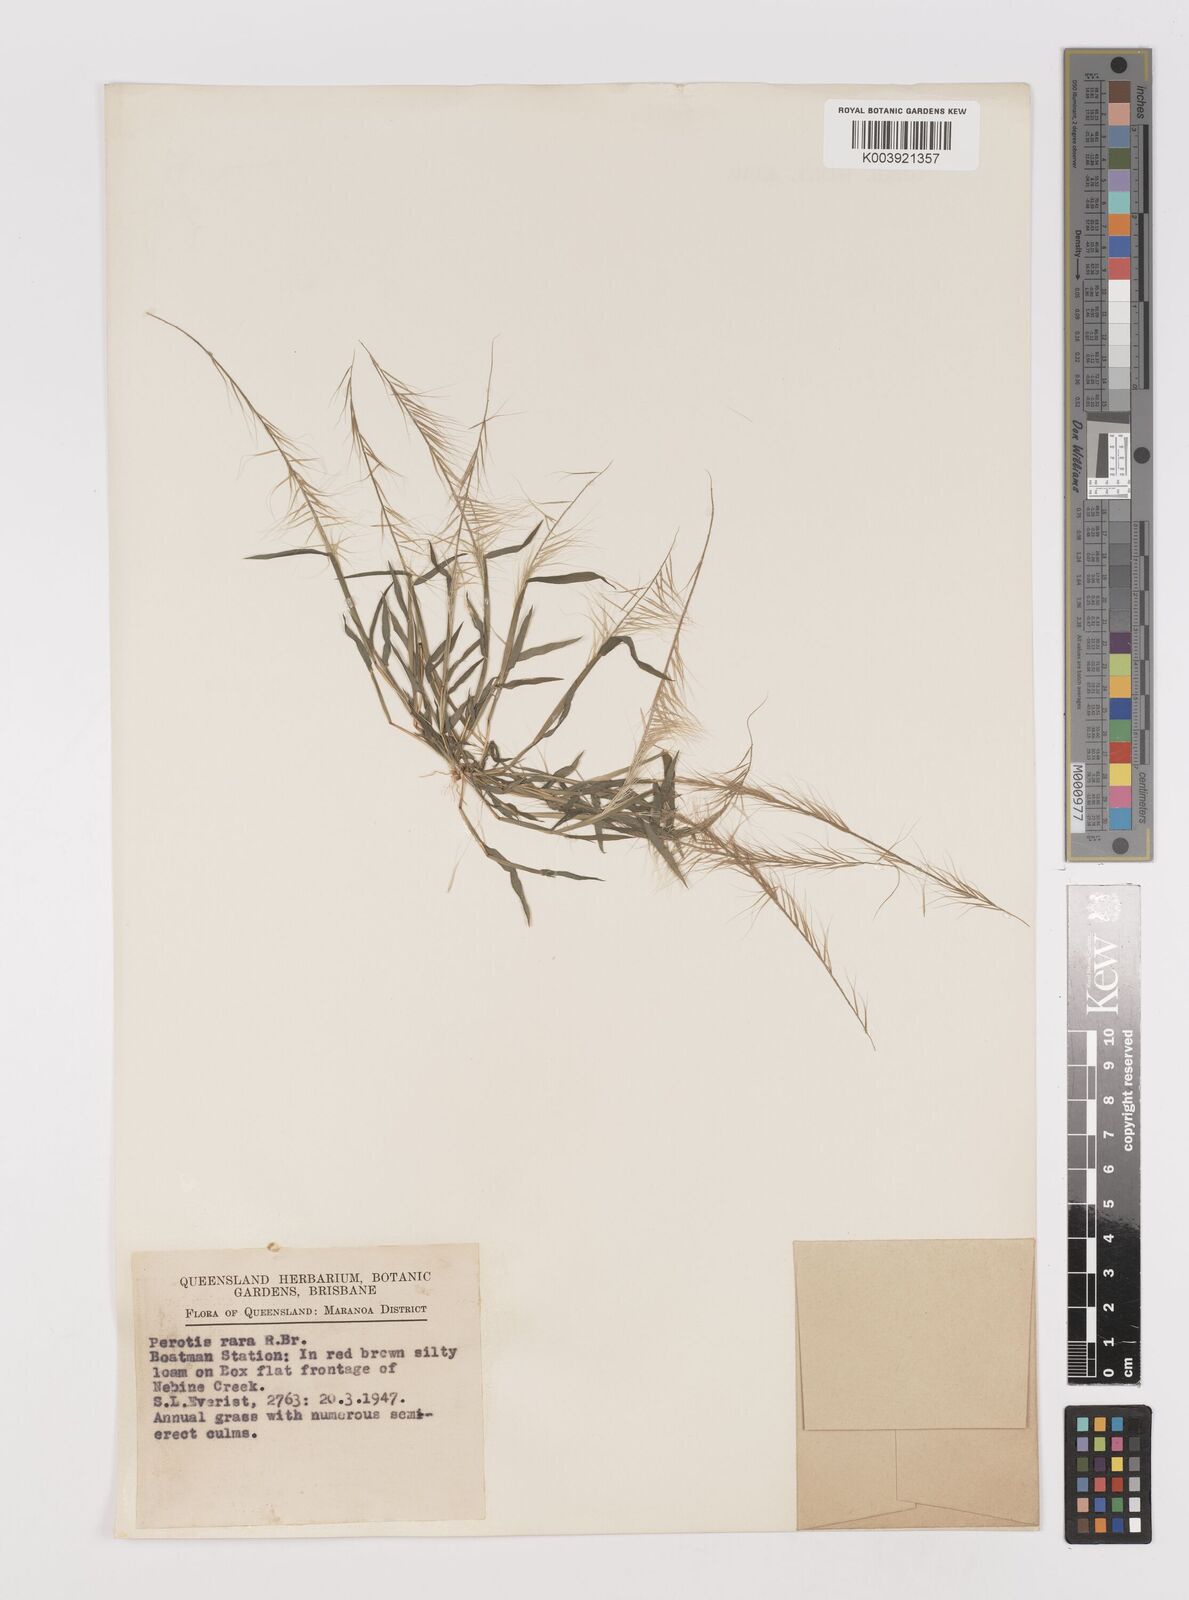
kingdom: Plantae
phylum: Tracheophyta
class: Liliopsida
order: Poales
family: Poaceae
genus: Perotis
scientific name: Perotis rara
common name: Comet grass
